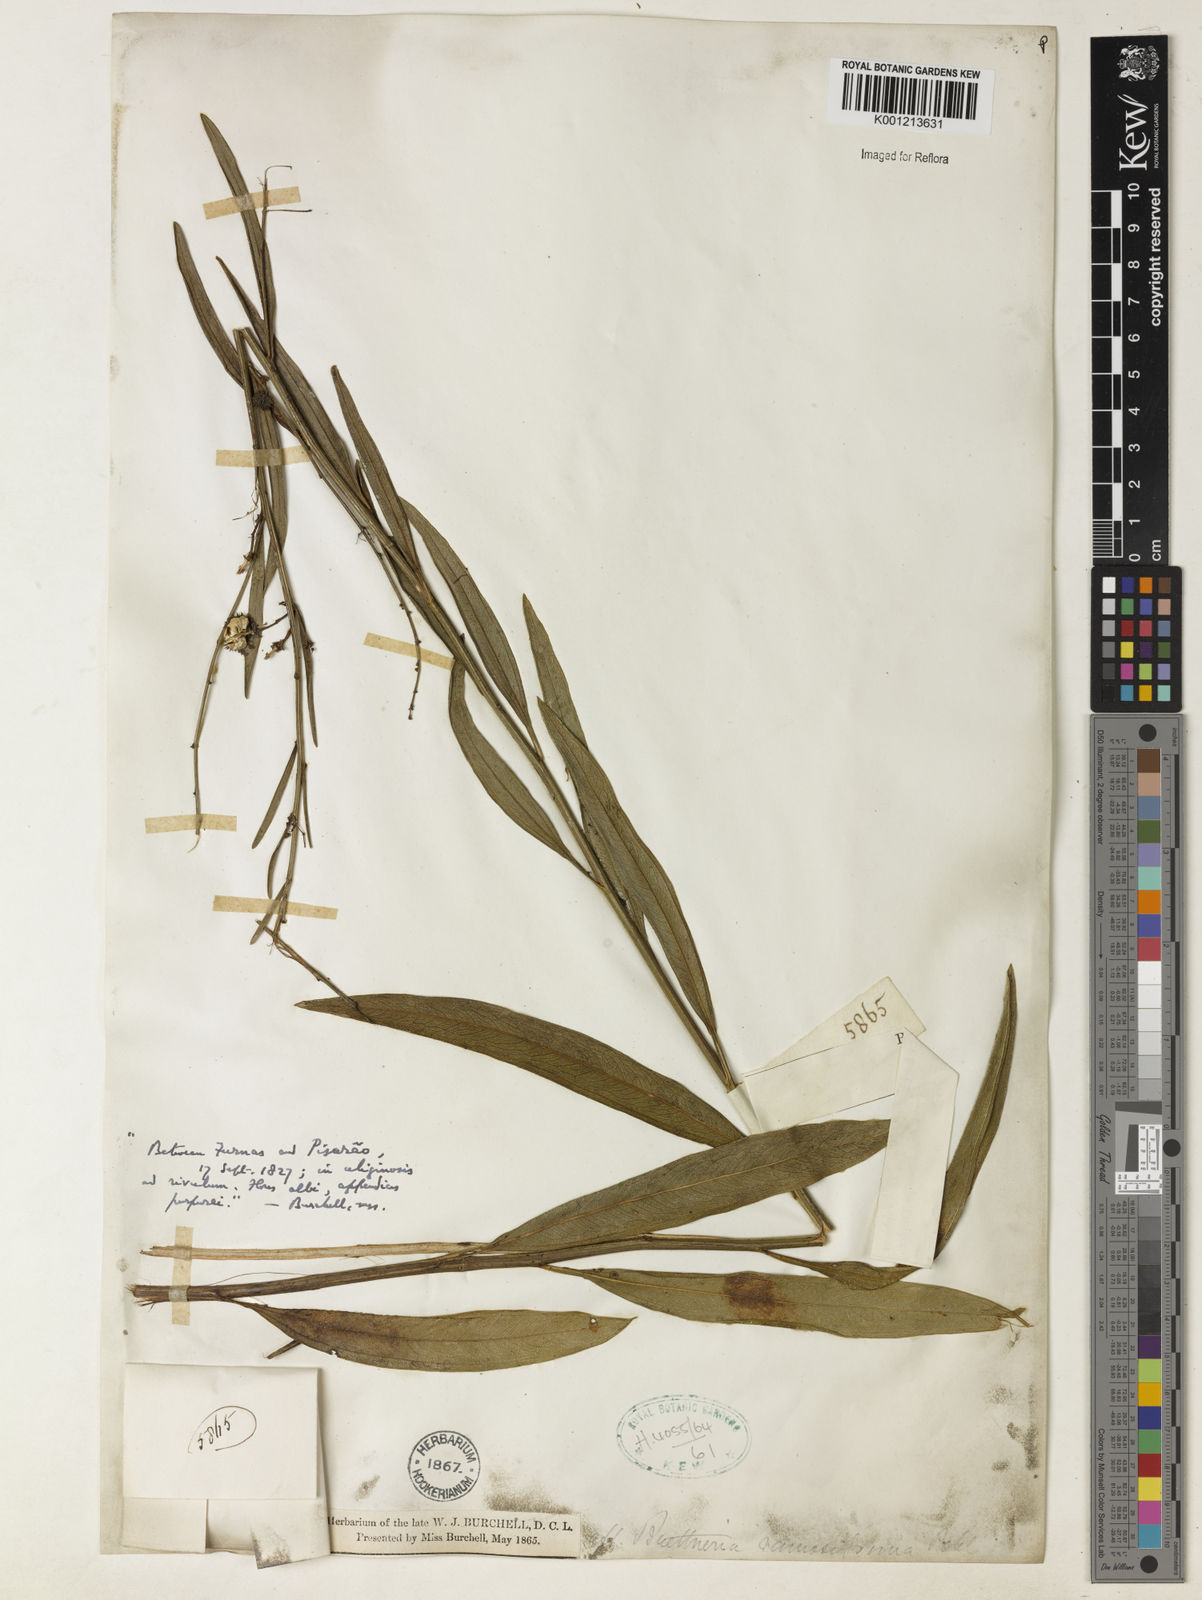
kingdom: Plantae
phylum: Tracheophyta
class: Magnoliopsida
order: Malvales
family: Malvaceae
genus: Byttneria
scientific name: Byttneria ramosissima
